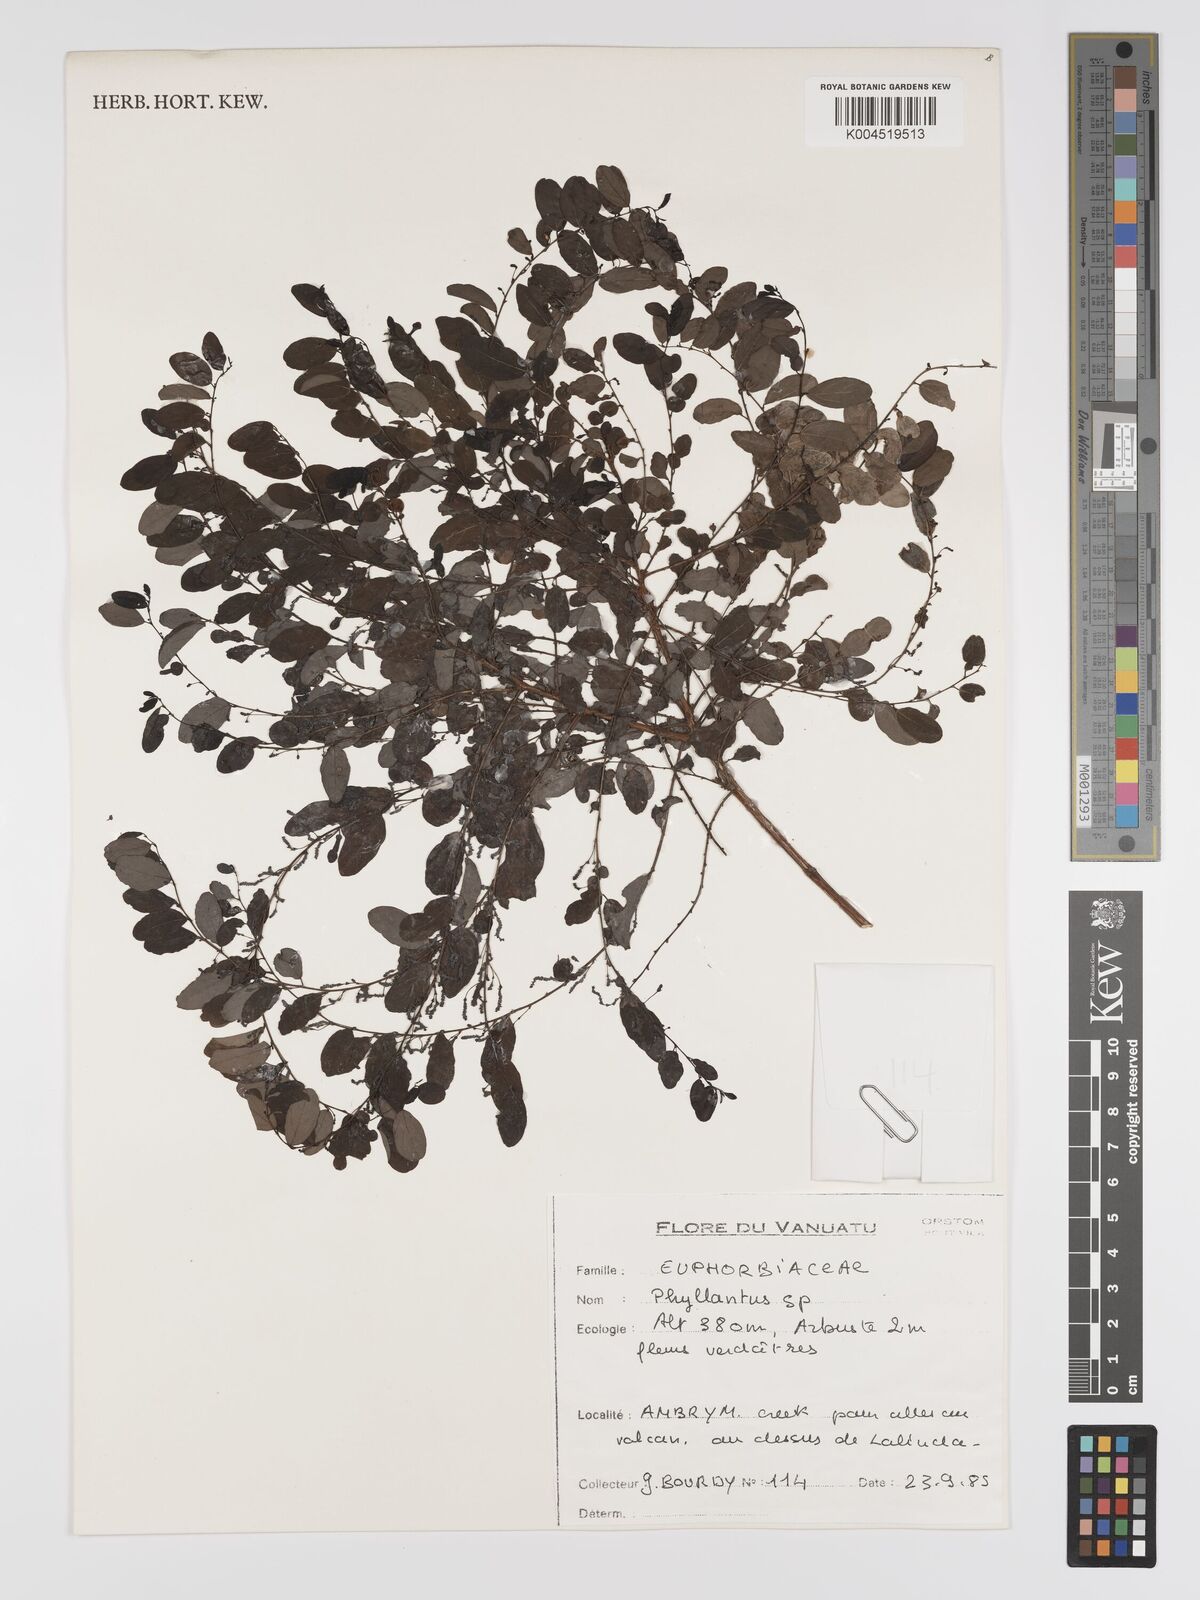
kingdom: Plantae
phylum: Tracheophyta
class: Magnoliopsida
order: Malpighiales
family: Phyllanthaceae
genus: Phyllanthus
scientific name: Phyllanthus
